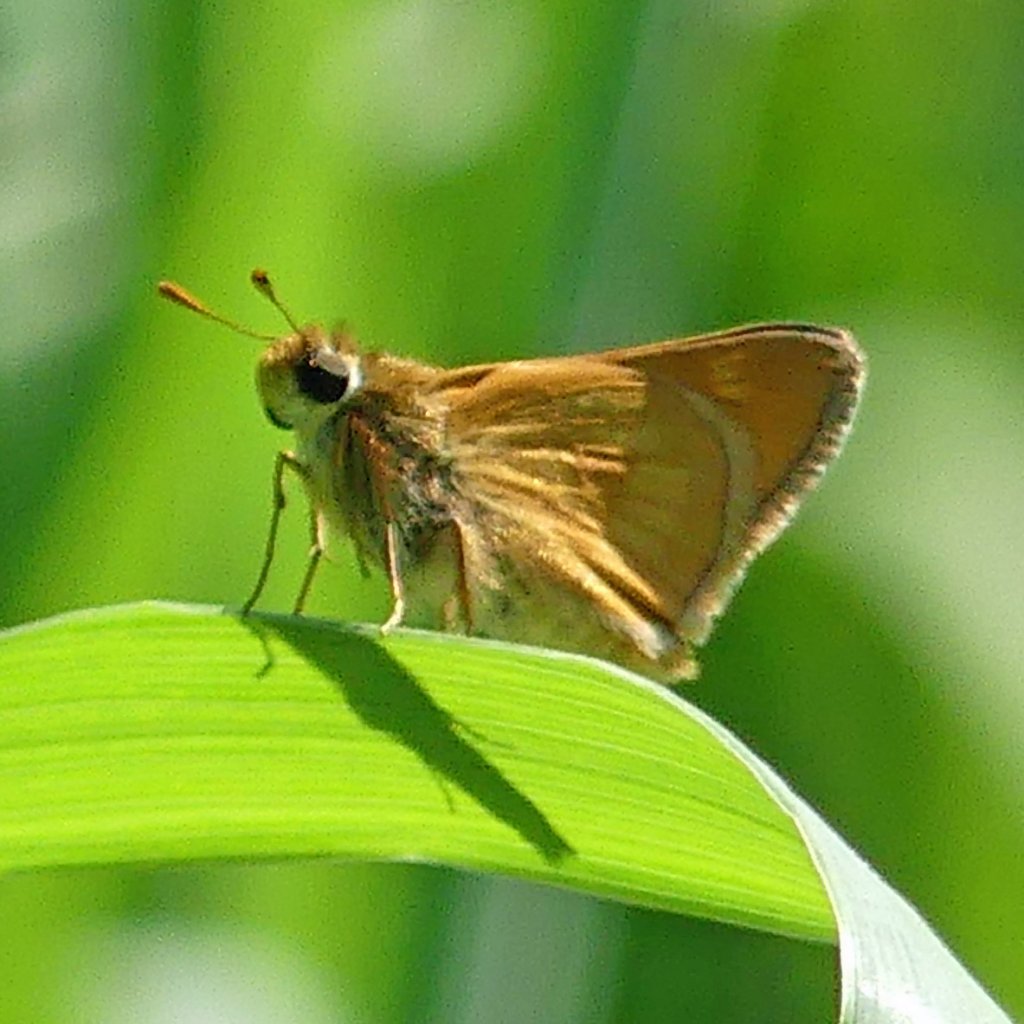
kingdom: Animalia
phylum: Arthropoda
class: Insecta
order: Lepidoptera
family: Hesperiidae
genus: Polites
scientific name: Polites
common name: Long Dash Skipper
